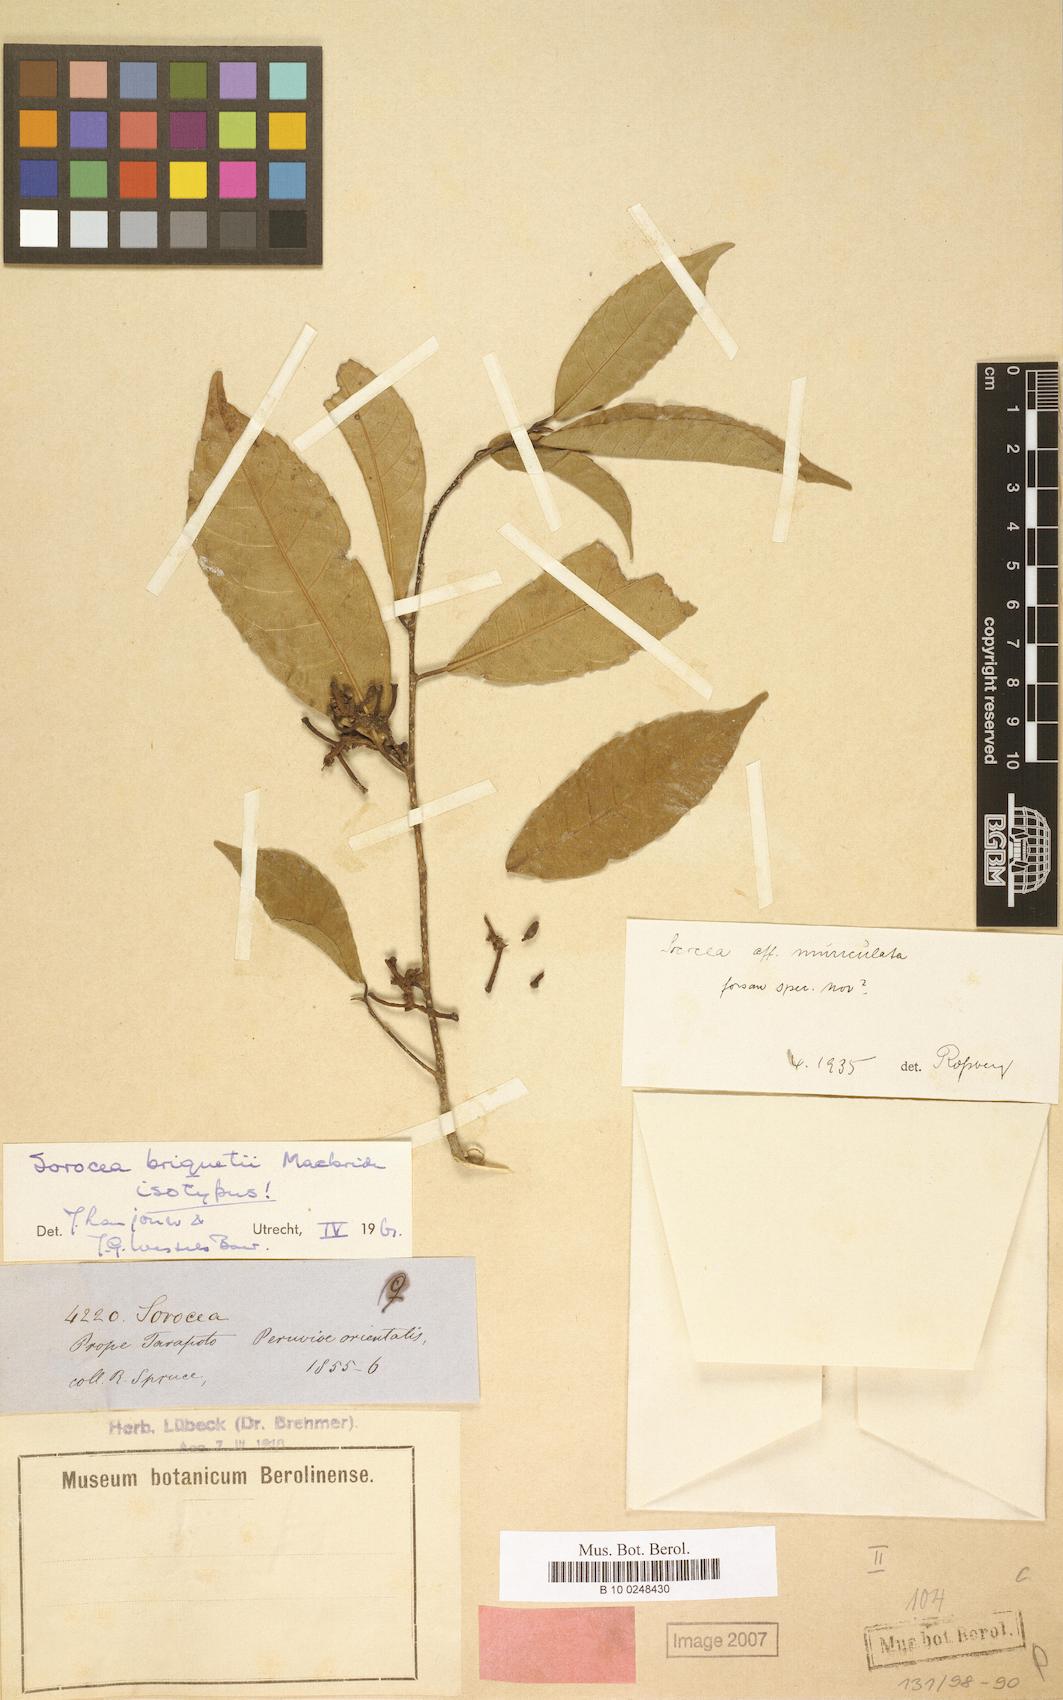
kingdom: Plantae
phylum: Tracheophyta
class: Magnoliopsida
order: Rosales
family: Moraceae
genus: Sorocea
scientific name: Sorocea briquetii
